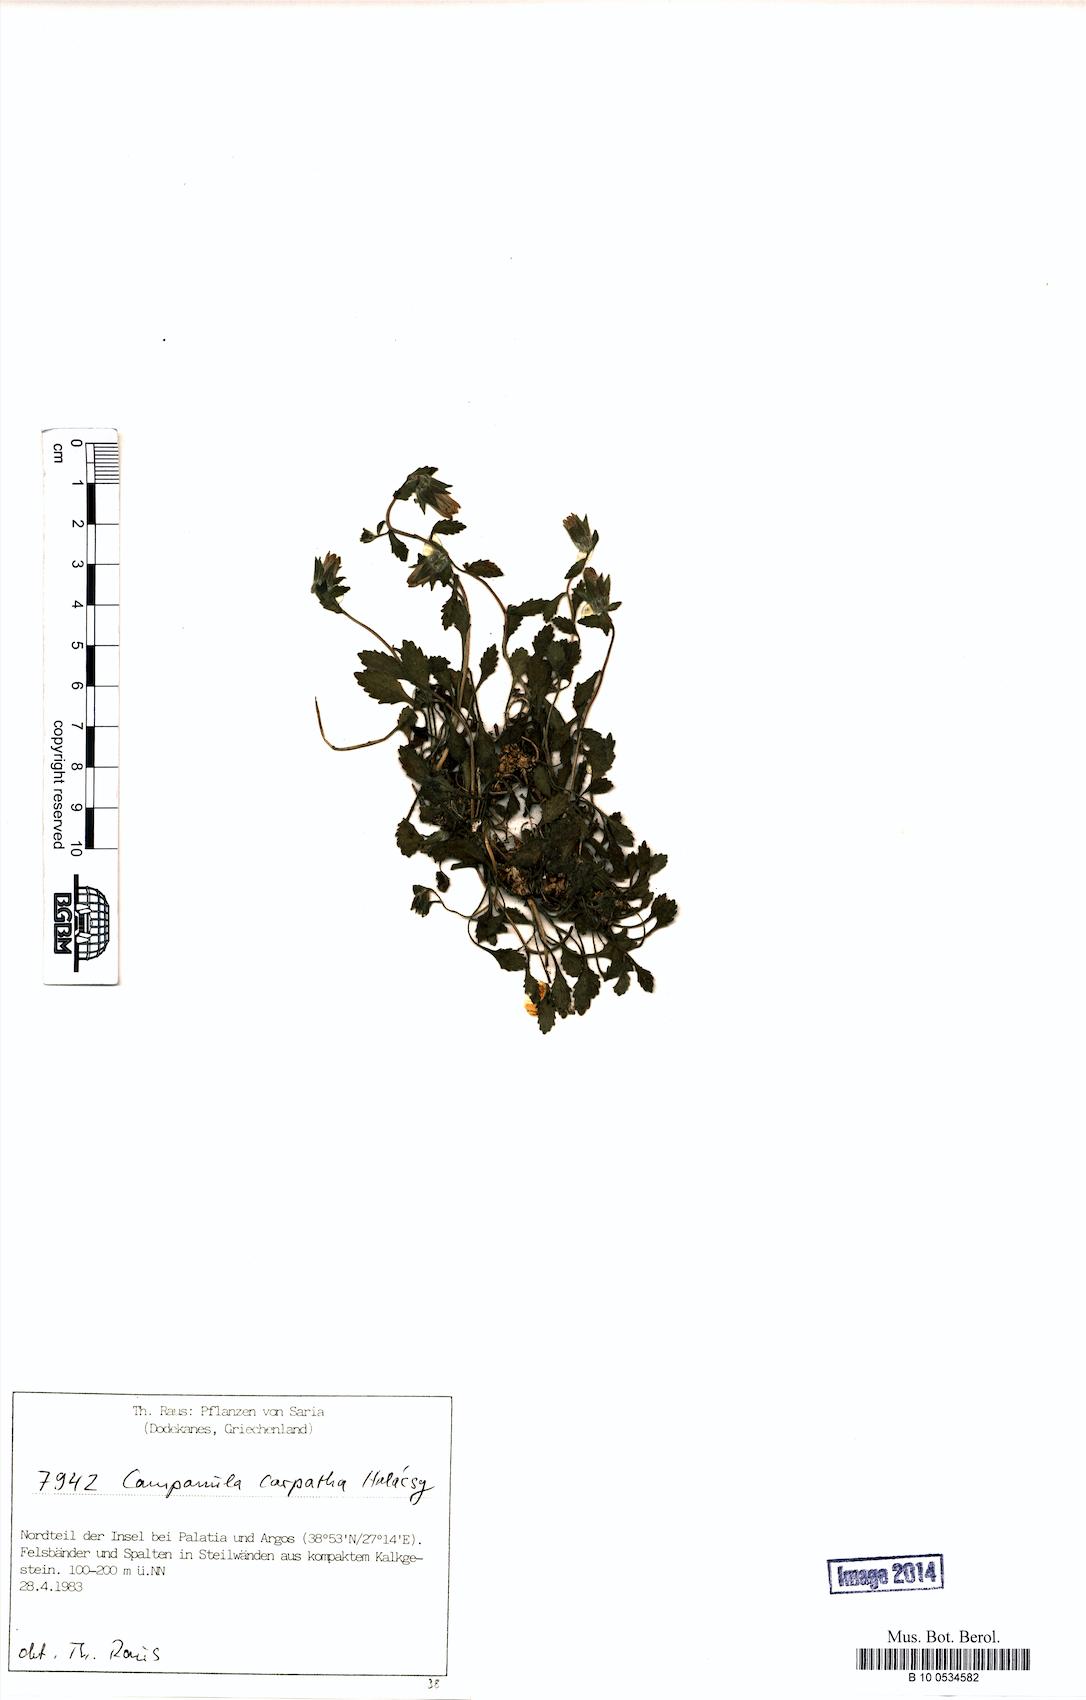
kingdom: Plantae
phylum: Tracheophyta
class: Magnoliopsida
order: Asterales
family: Campanulaceae
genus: Campanula
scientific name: Campanula carpatha
